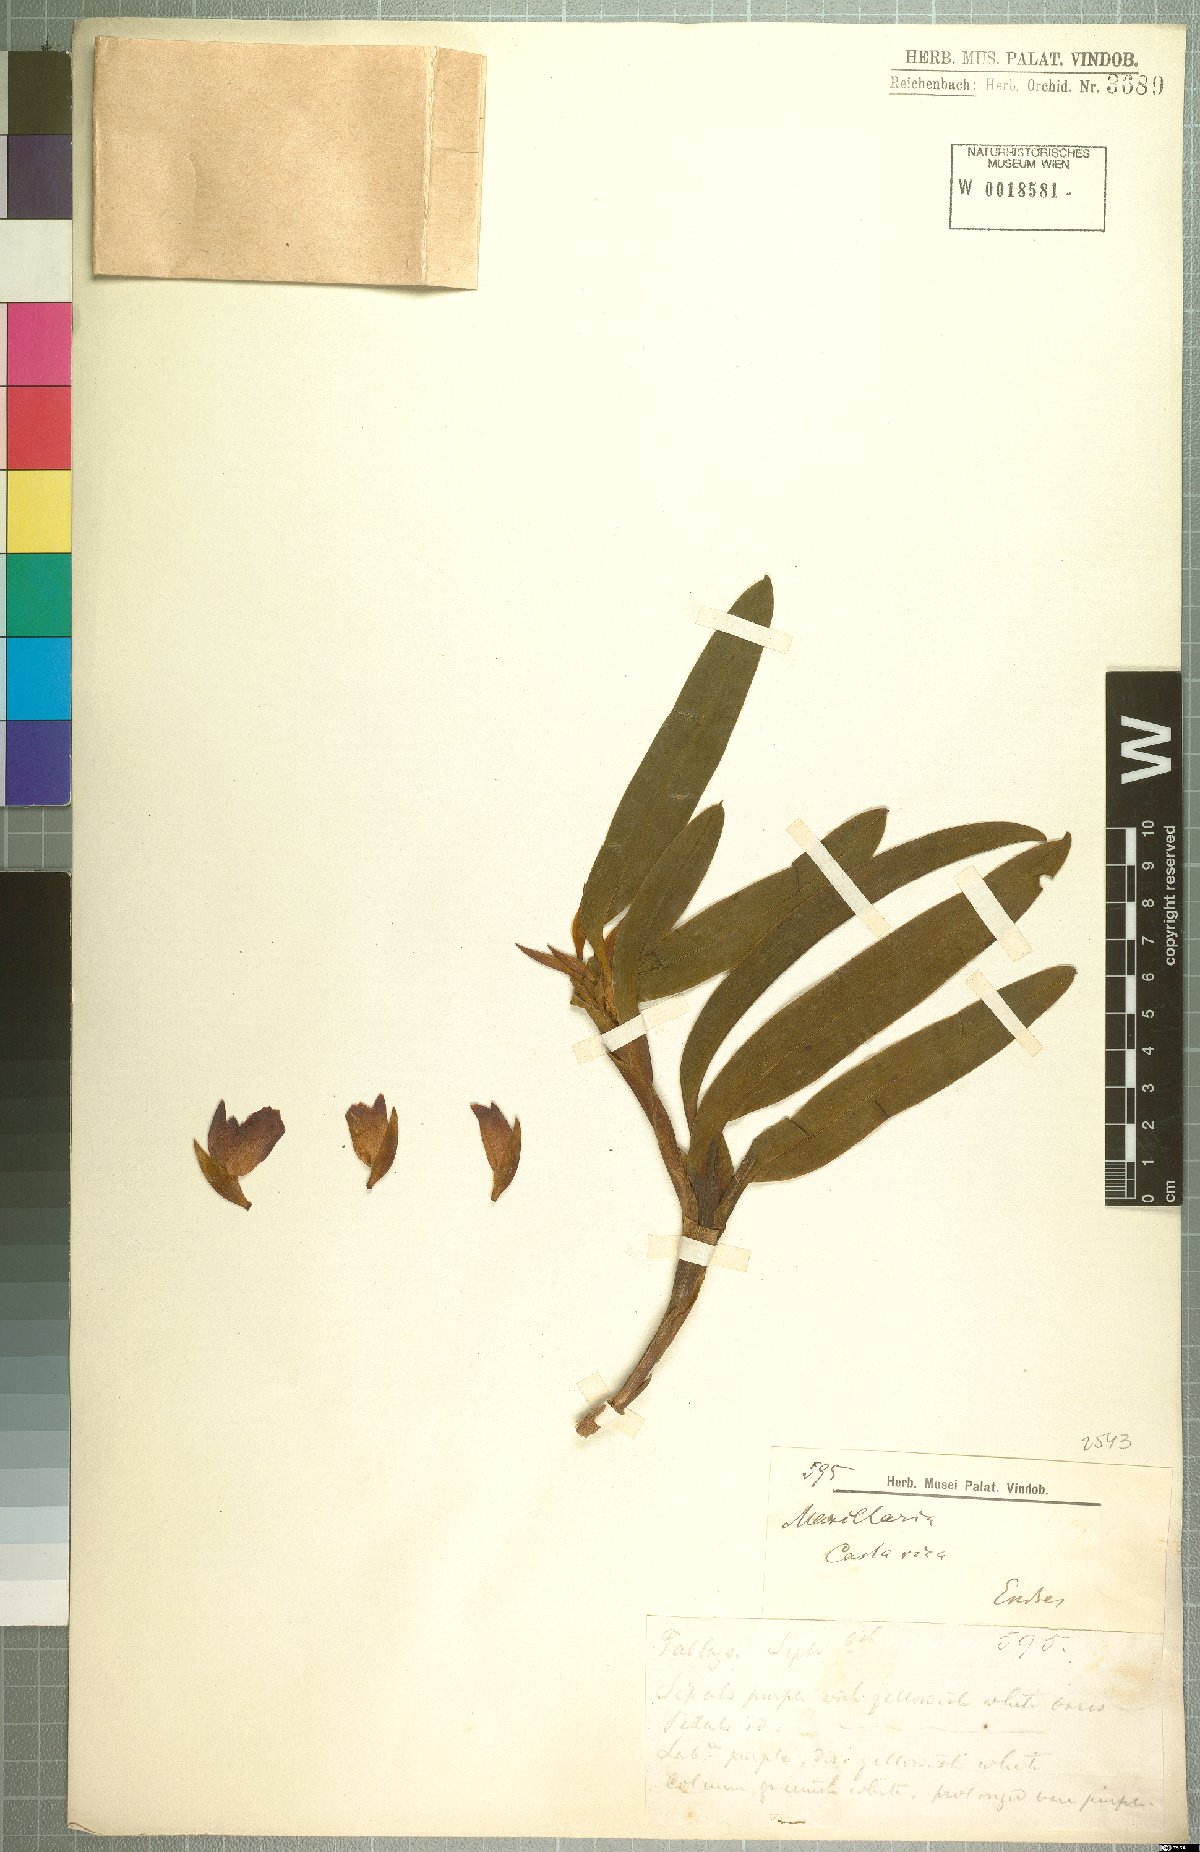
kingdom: Plantae
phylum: Tracheophyta
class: Liliopsida
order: Asparagales
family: Orchidaceae
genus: Maxillaria
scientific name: Maxillaria
